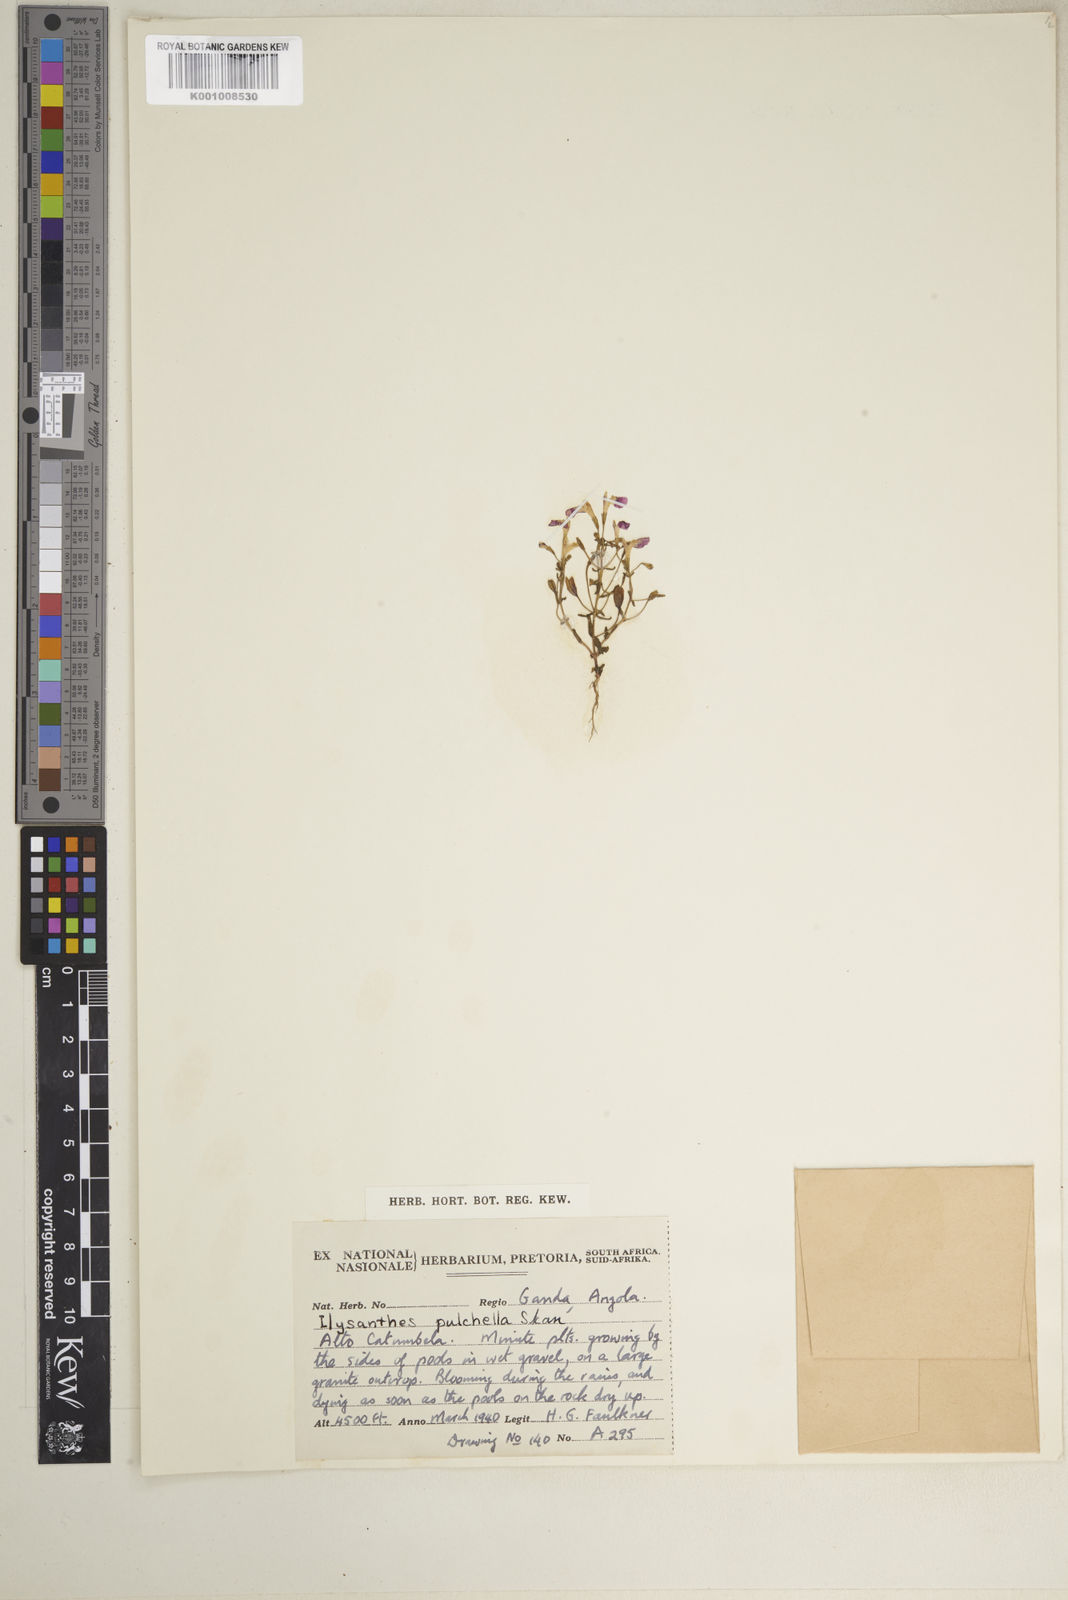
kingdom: Plantae
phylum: Tracheophyta
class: Magnoliopsida
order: Lamiales
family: Linderniaceae
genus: Linderniella
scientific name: Linderniella pulchella
